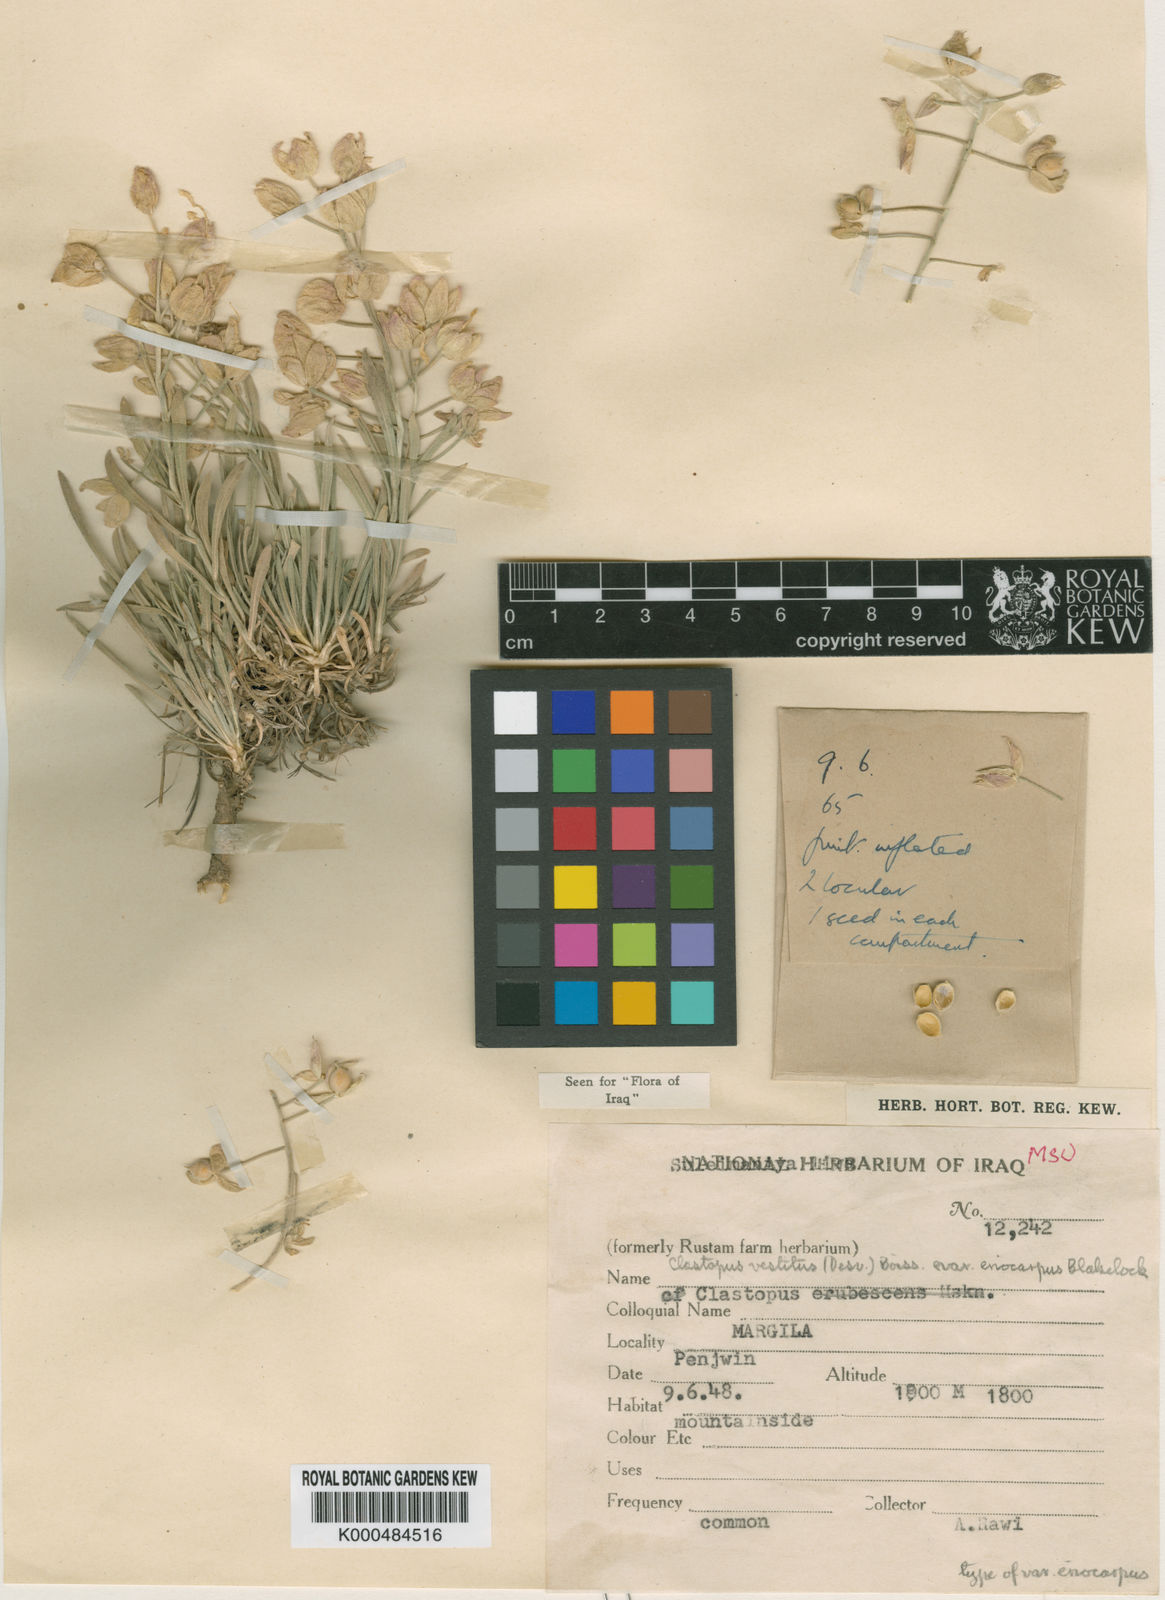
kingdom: Plantae
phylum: Tracheophyta
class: Magnoliopsida
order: Brassicales
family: Brassicaceae
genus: Clastopus
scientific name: Clastopus vestitus
